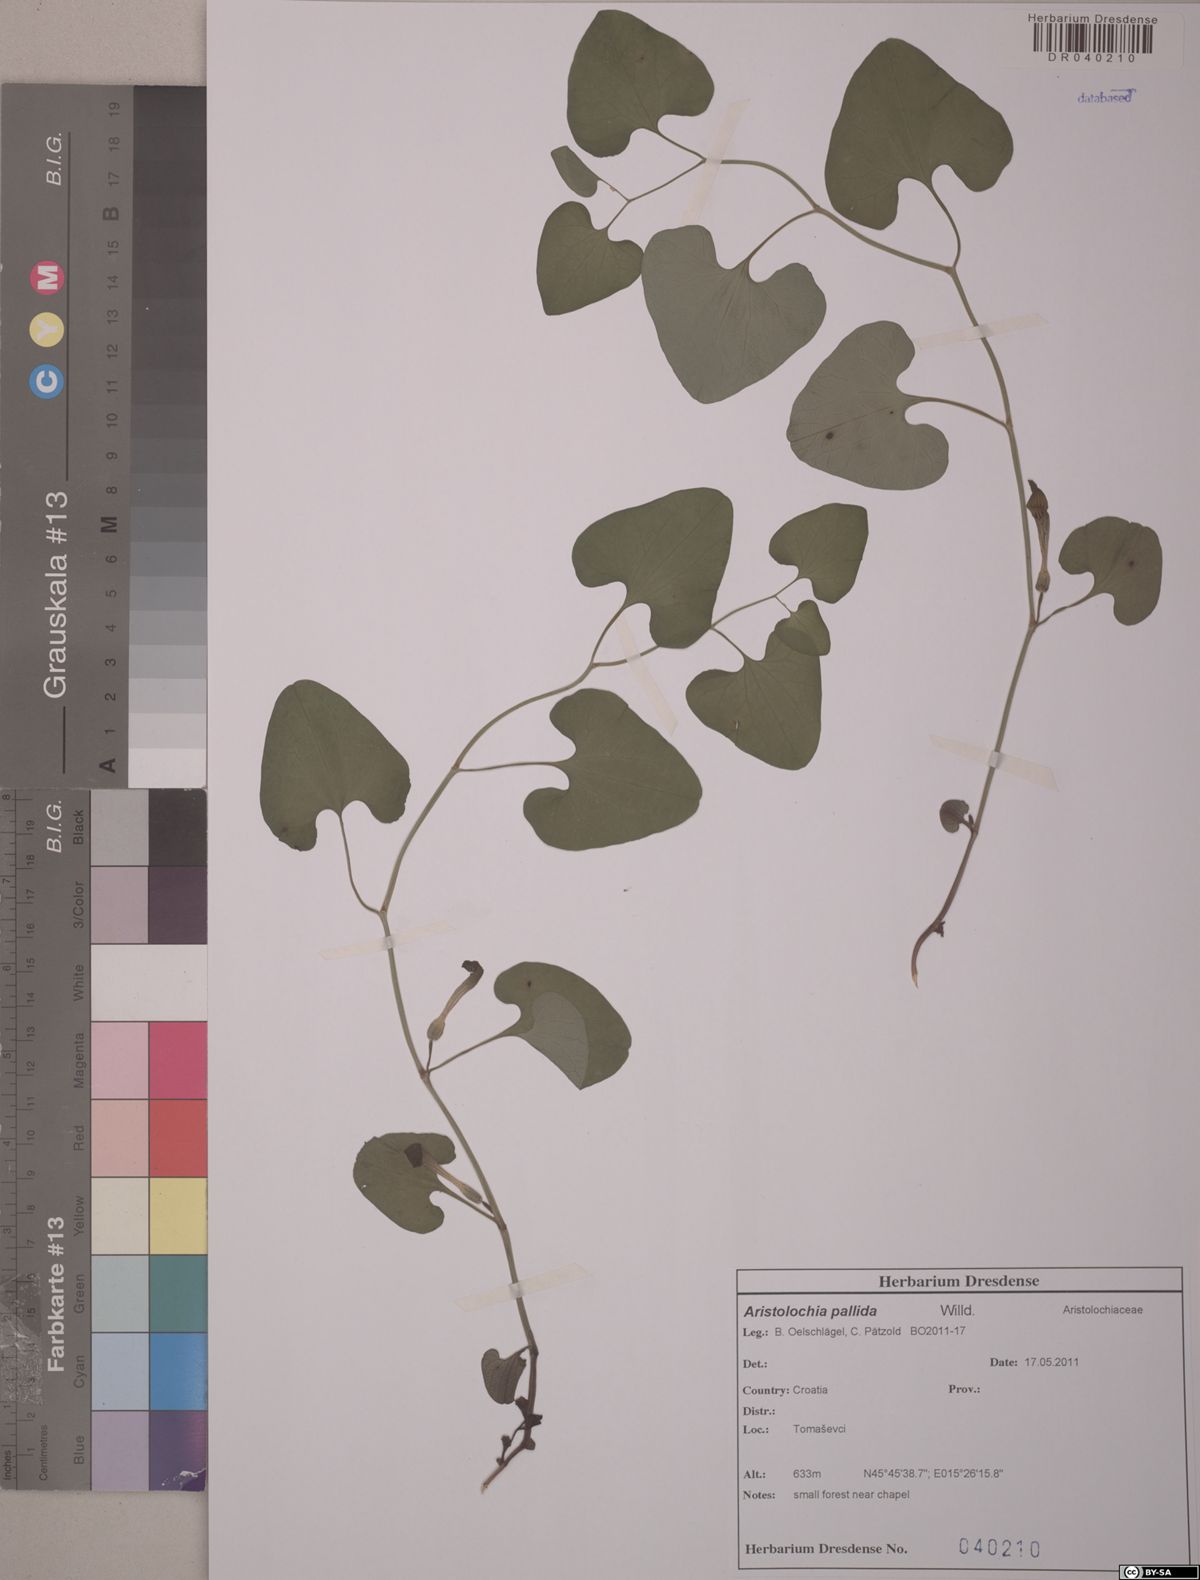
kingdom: Plantae
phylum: Tracheophyta
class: Magnoliopsida
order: Piperales
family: Aristolochiaceae
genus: Aristolochia
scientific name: Aristolochia pallida
